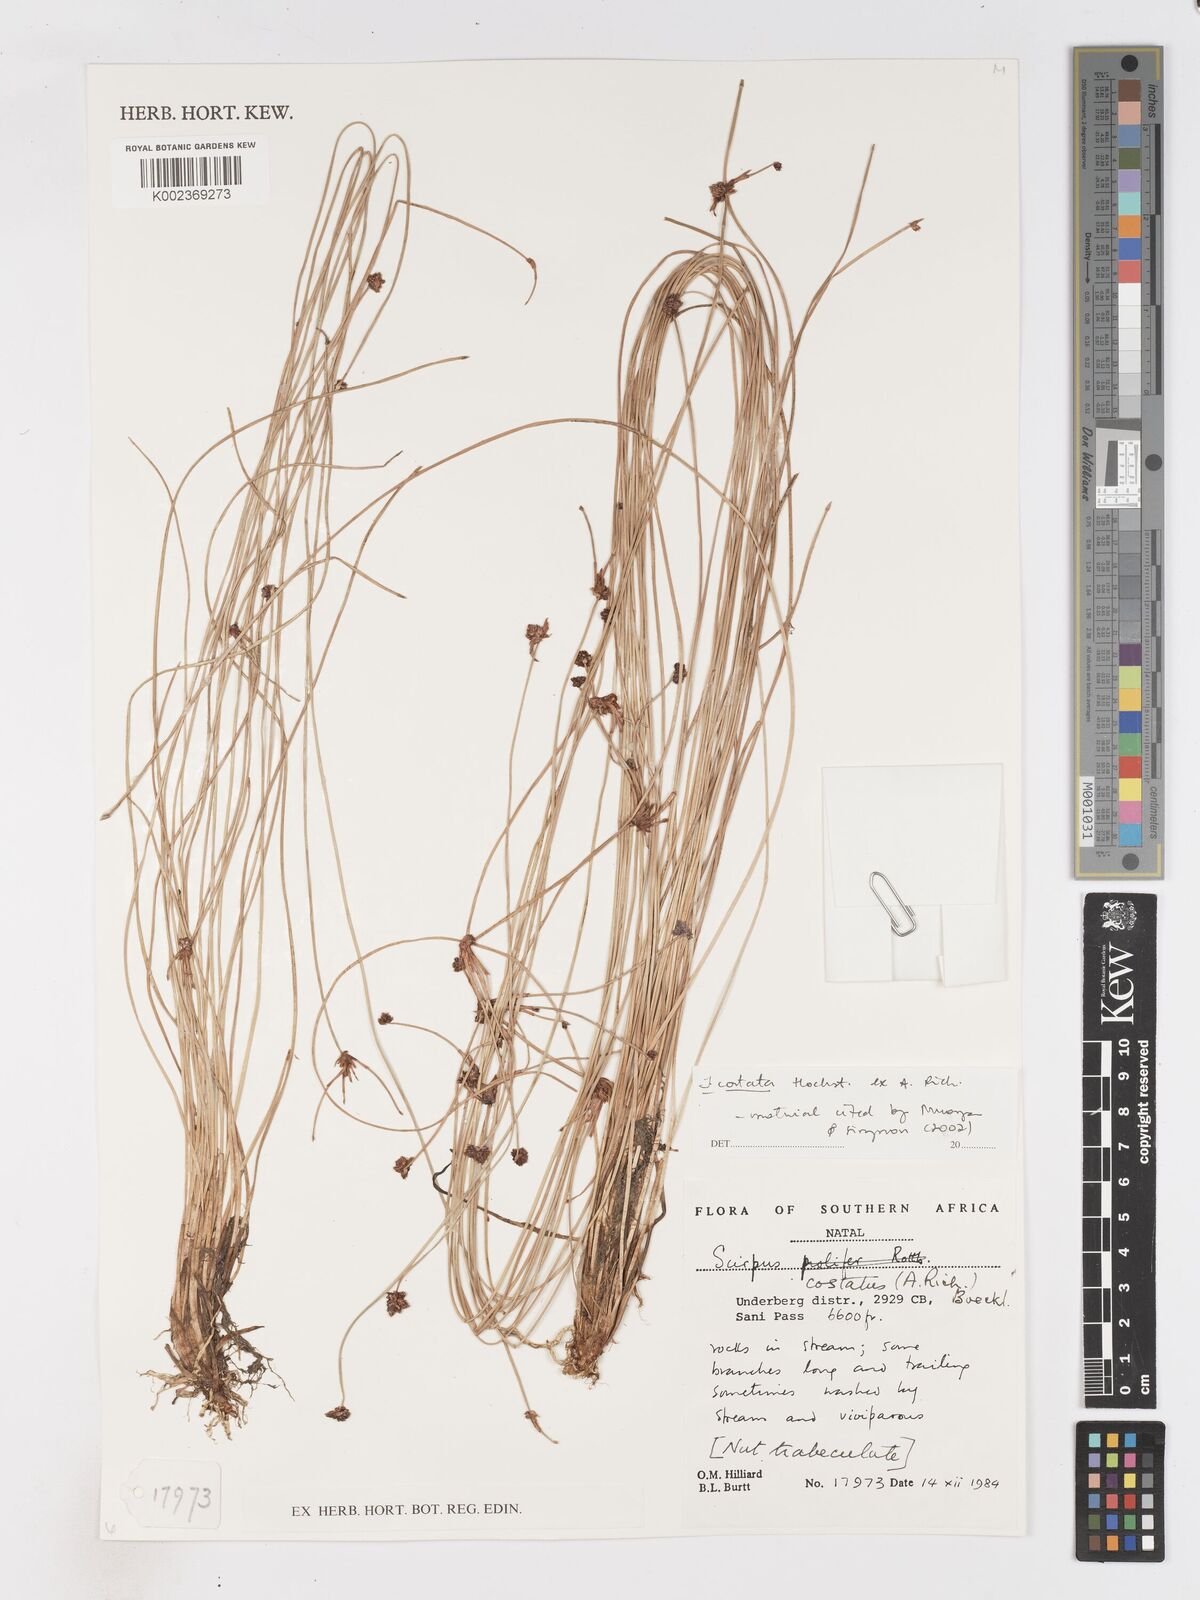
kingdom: Plantae
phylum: Tracheophyta
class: Liliopsida
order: Poales
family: Cyperaceae
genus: Isolepis
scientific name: Isolepis costata
